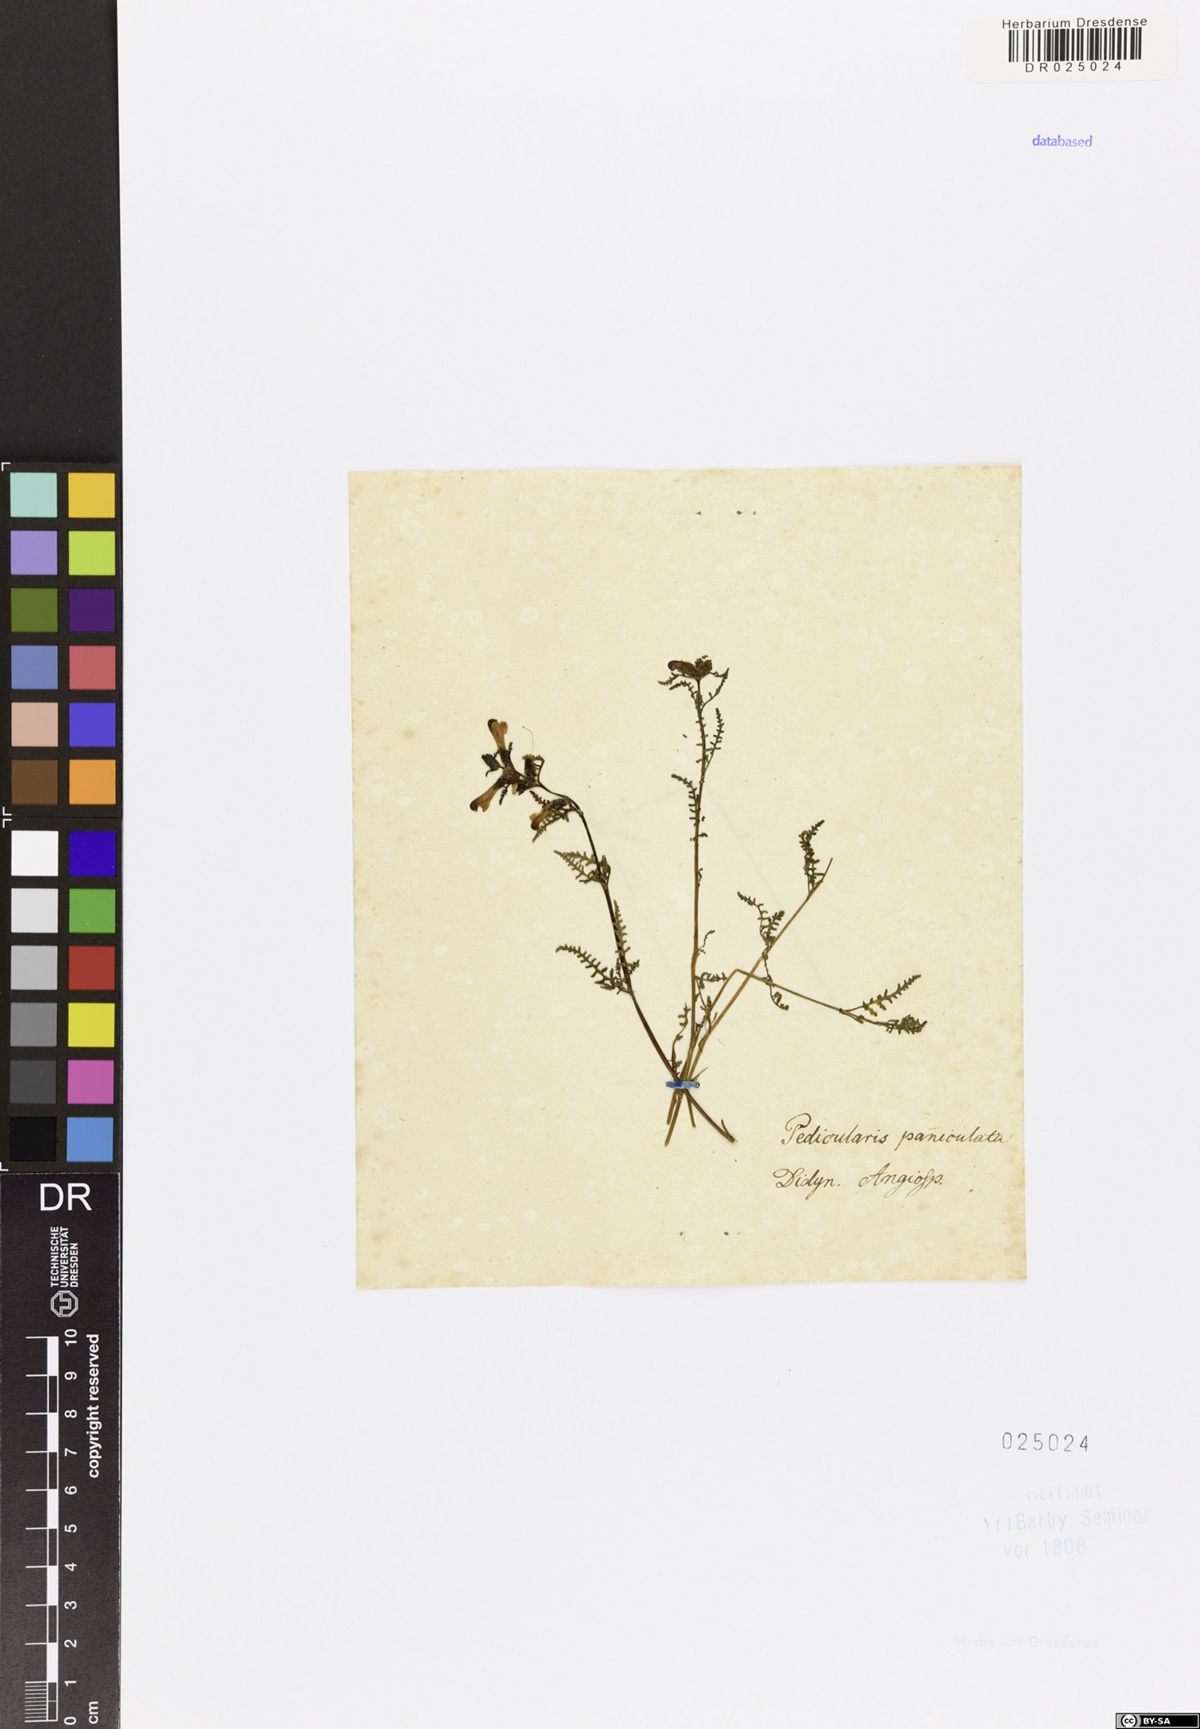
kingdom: Plantae
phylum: Tracheophyta
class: Magnoliopsida
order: Lamiales
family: Orobanchaceae
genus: Pedicularis
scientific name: Pedicularis labradorica
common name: Labrador lousewort
